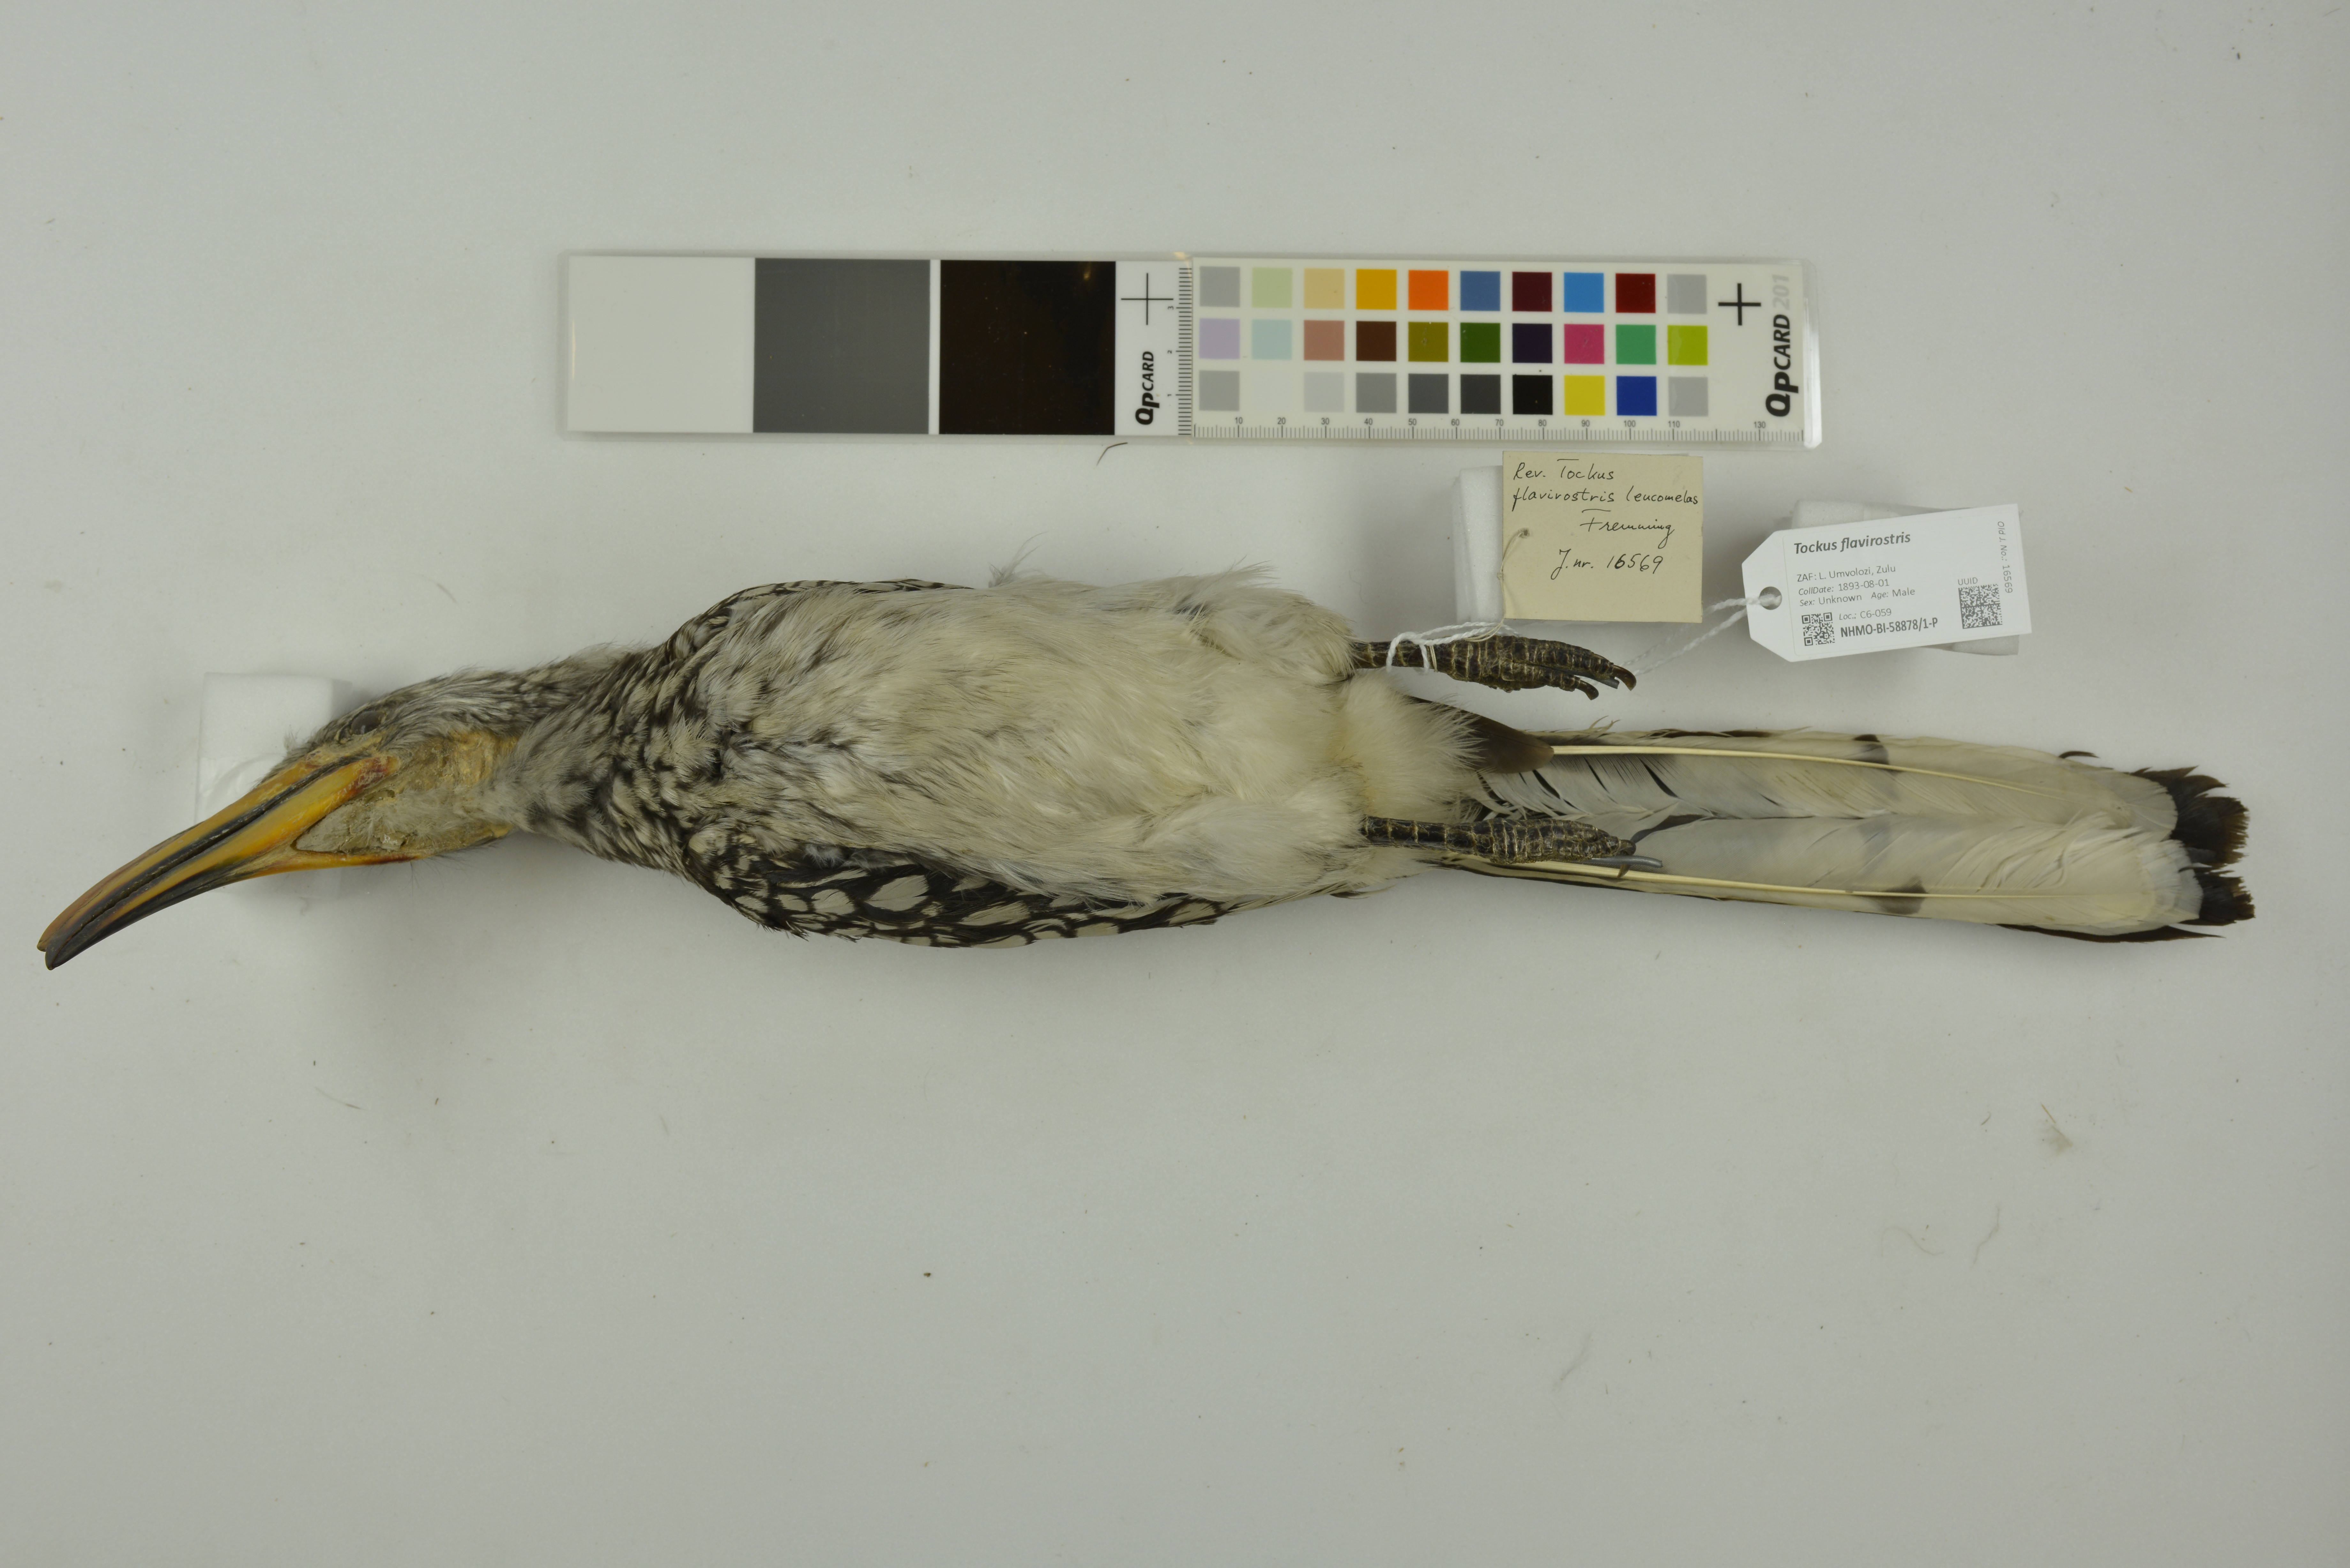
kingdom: Animalia
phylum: Chordata
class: Aves
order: Bucerotiformes
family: Bucerotidae
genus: Tockus
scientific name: Tockus flavirostris
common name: Eastern yellow-billed hornbill
